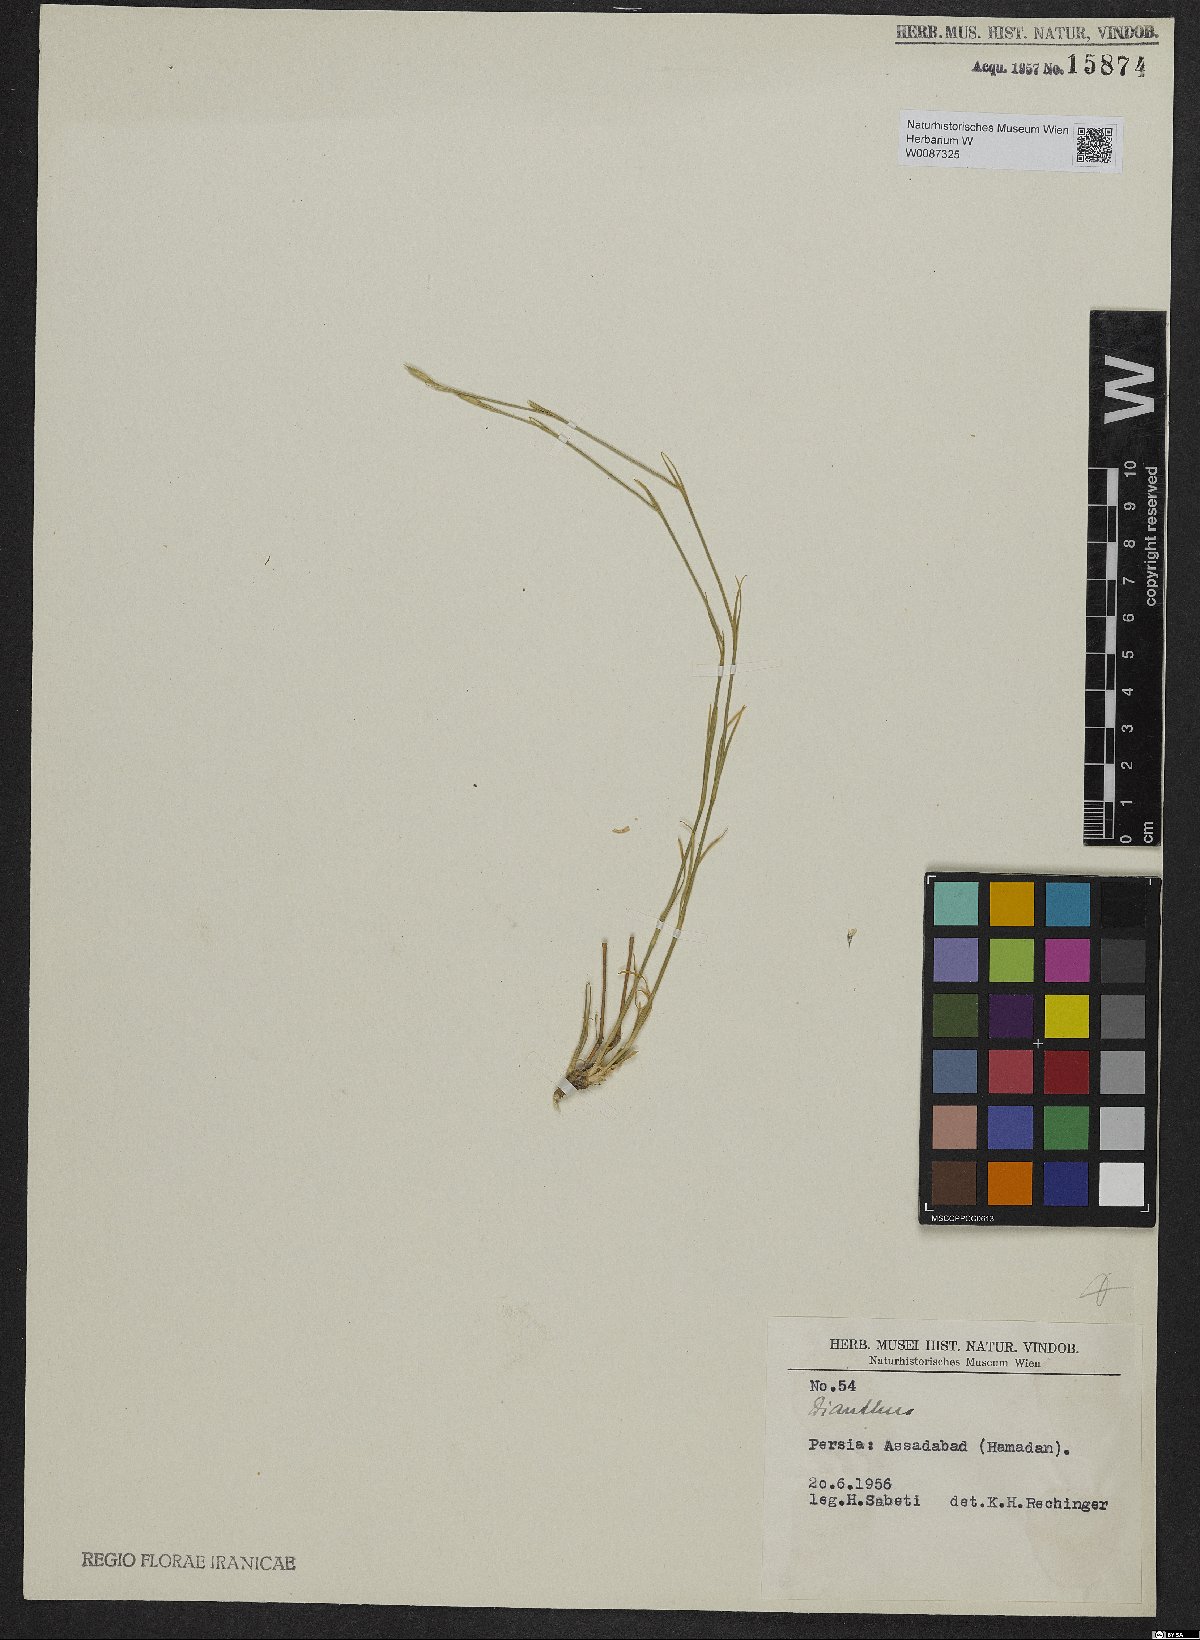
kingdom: Plantae
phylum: Tracheophyta
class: Magnoliopsida
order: Caryophyllales
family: Caryophyllaceae
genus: Dianthus
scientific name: Dianthus
